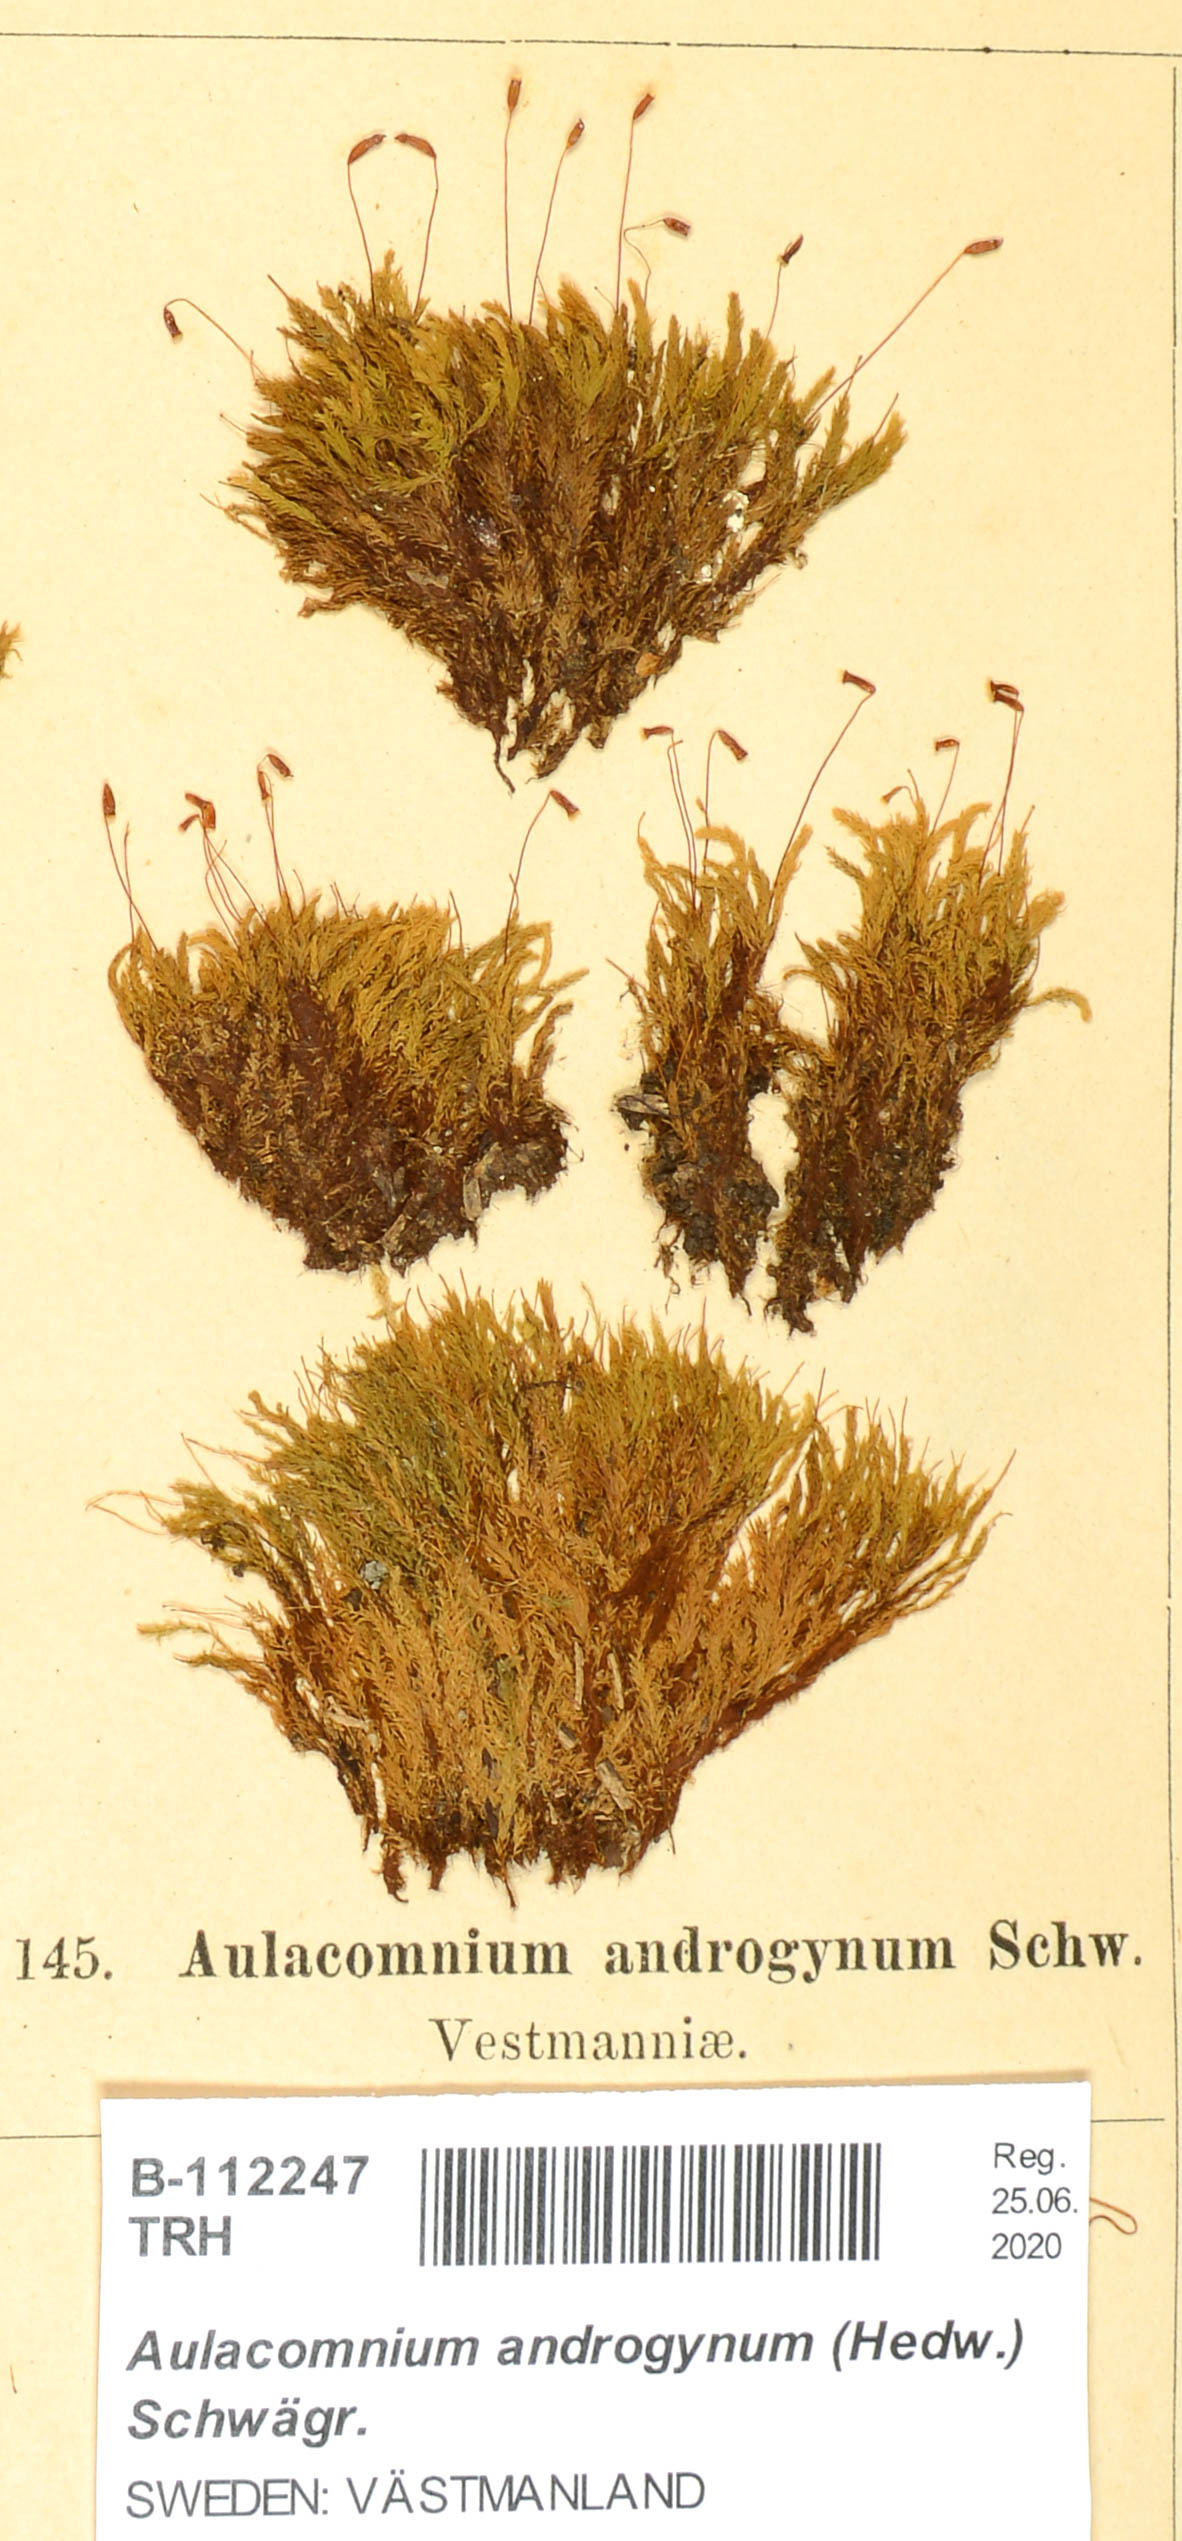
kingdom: Plantae
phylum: Bryophyta
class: Bryopsida
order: Aulacomniales
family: Aulacomniaceae
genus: Aulacomnium
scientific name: Aulacomnium androgynum
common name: Little groove moss
